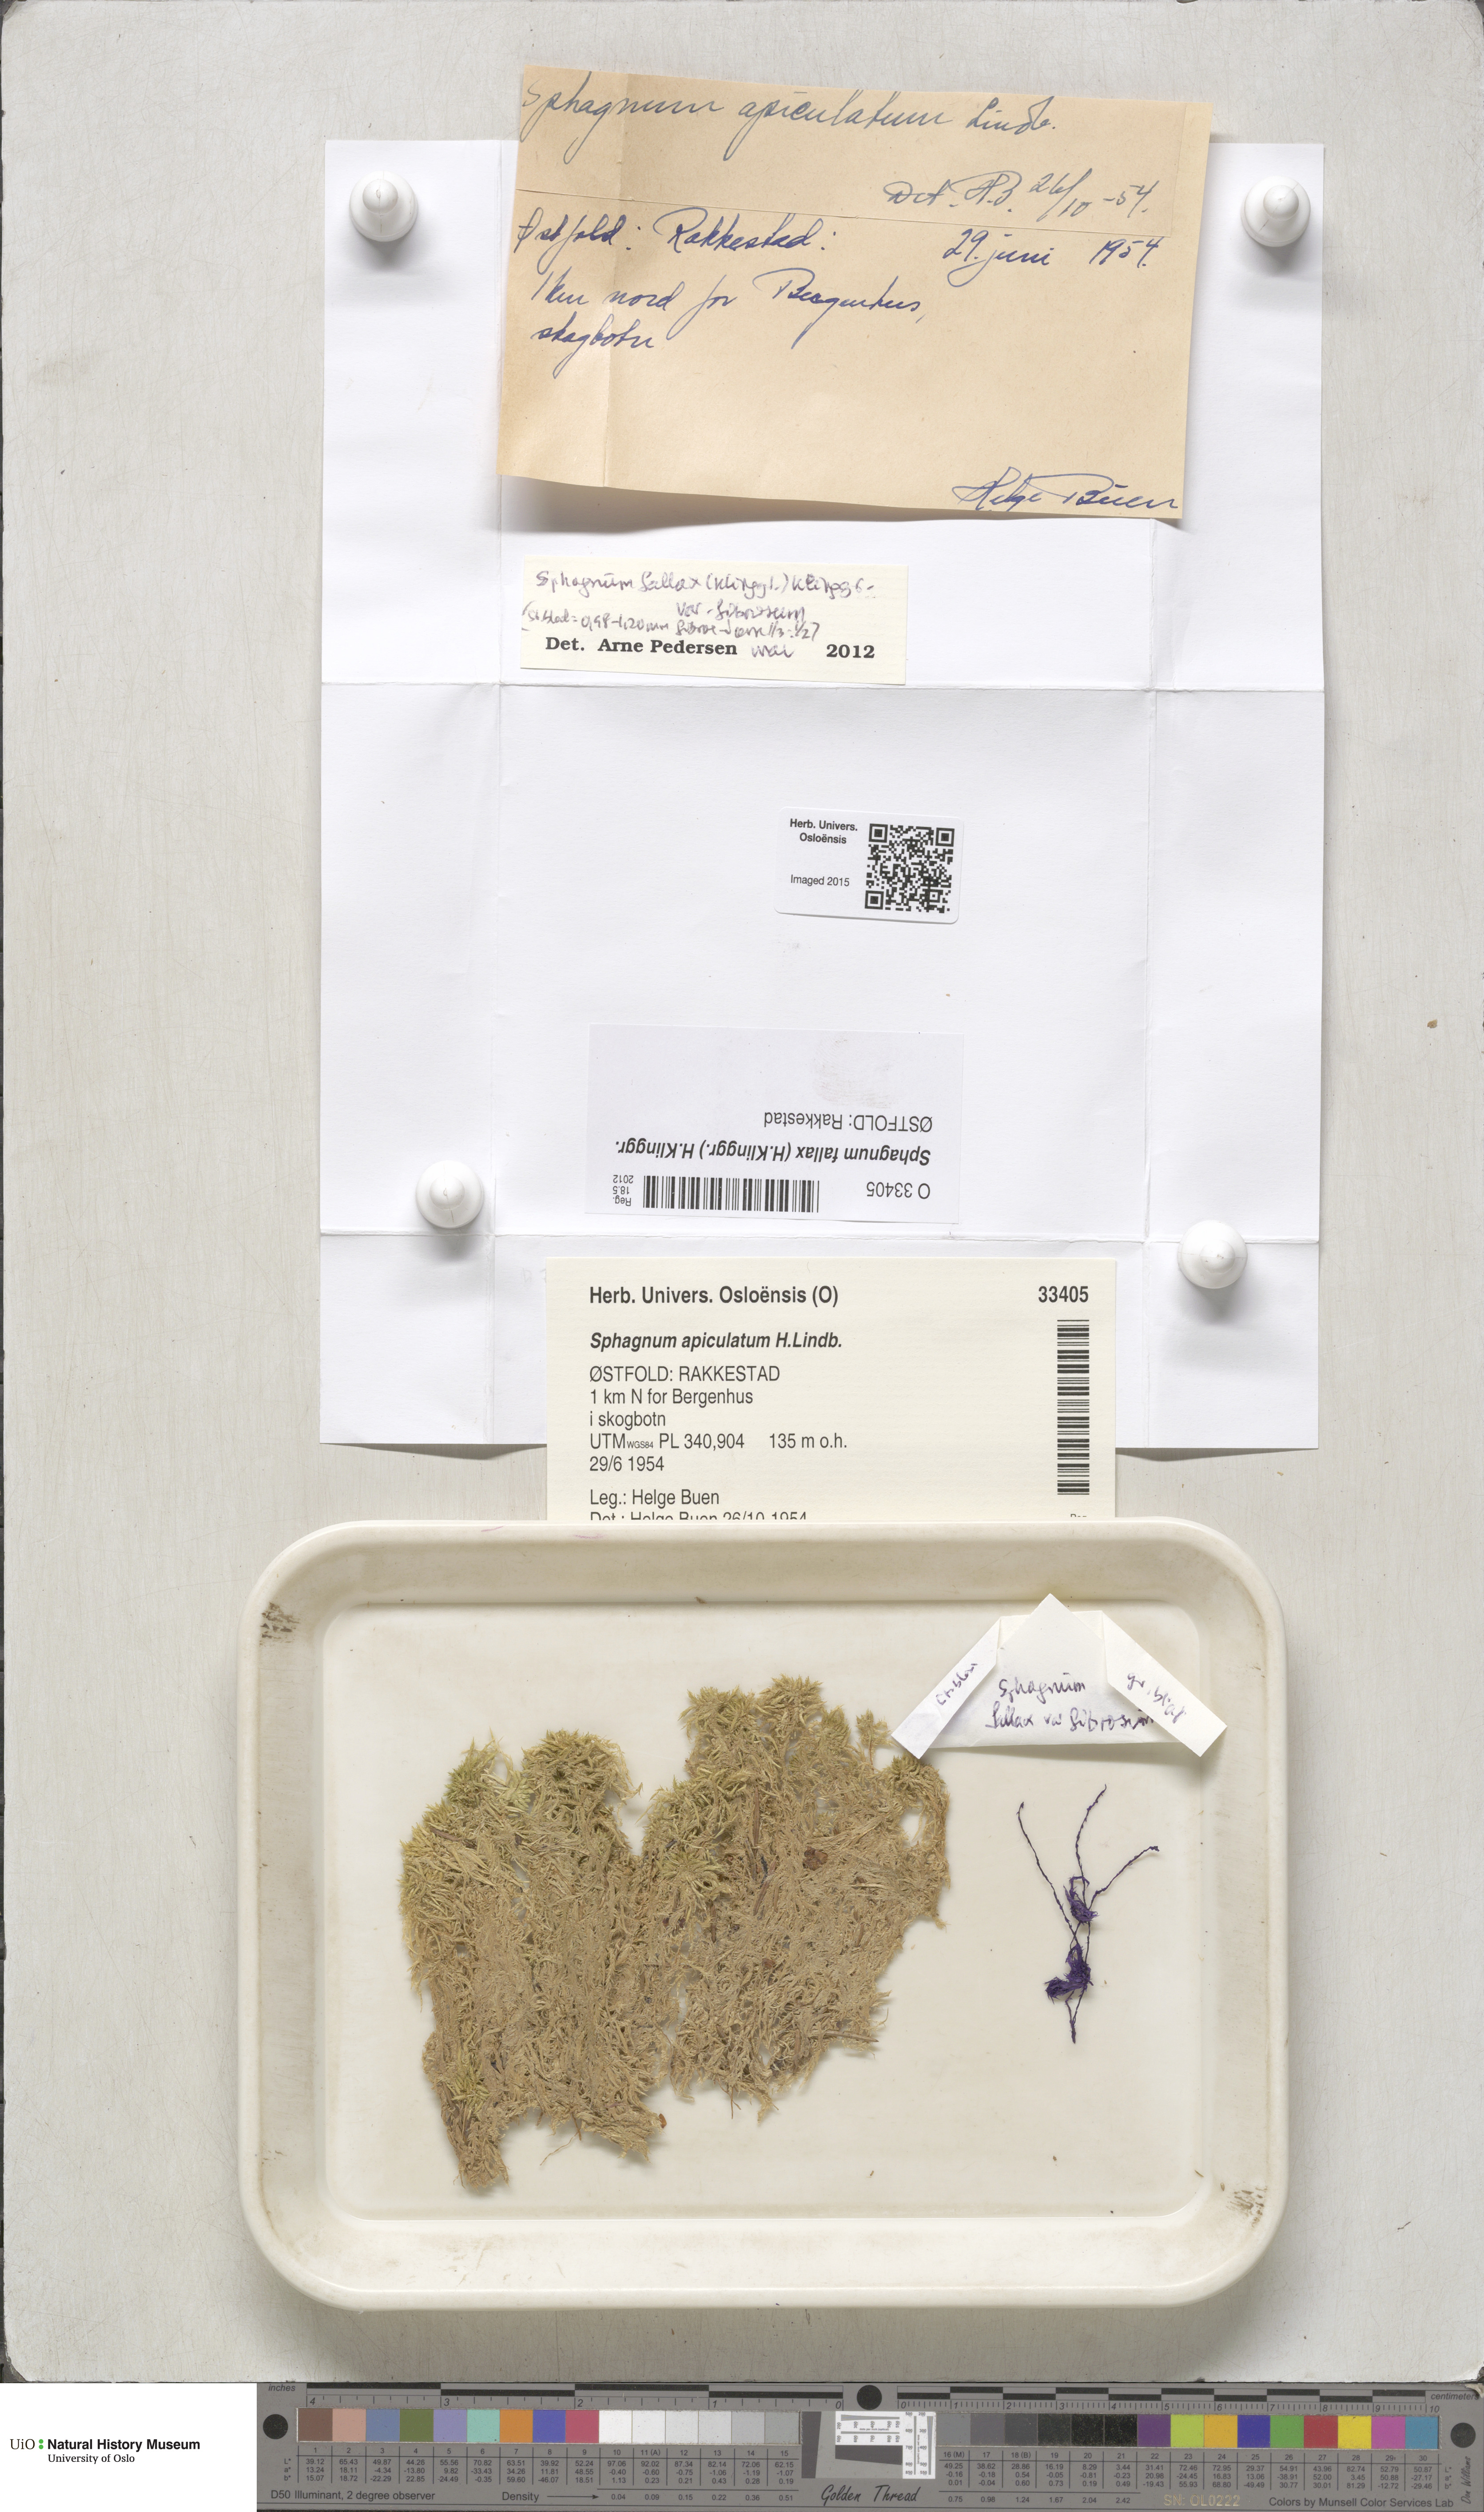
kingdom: Plantae
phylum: Bryophyta
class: Sphagnopsida
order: Sphagnales
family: Sphagnaceae
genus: Sphagnum
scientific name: Sphagnum fallax
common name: Flat-top peat moss
